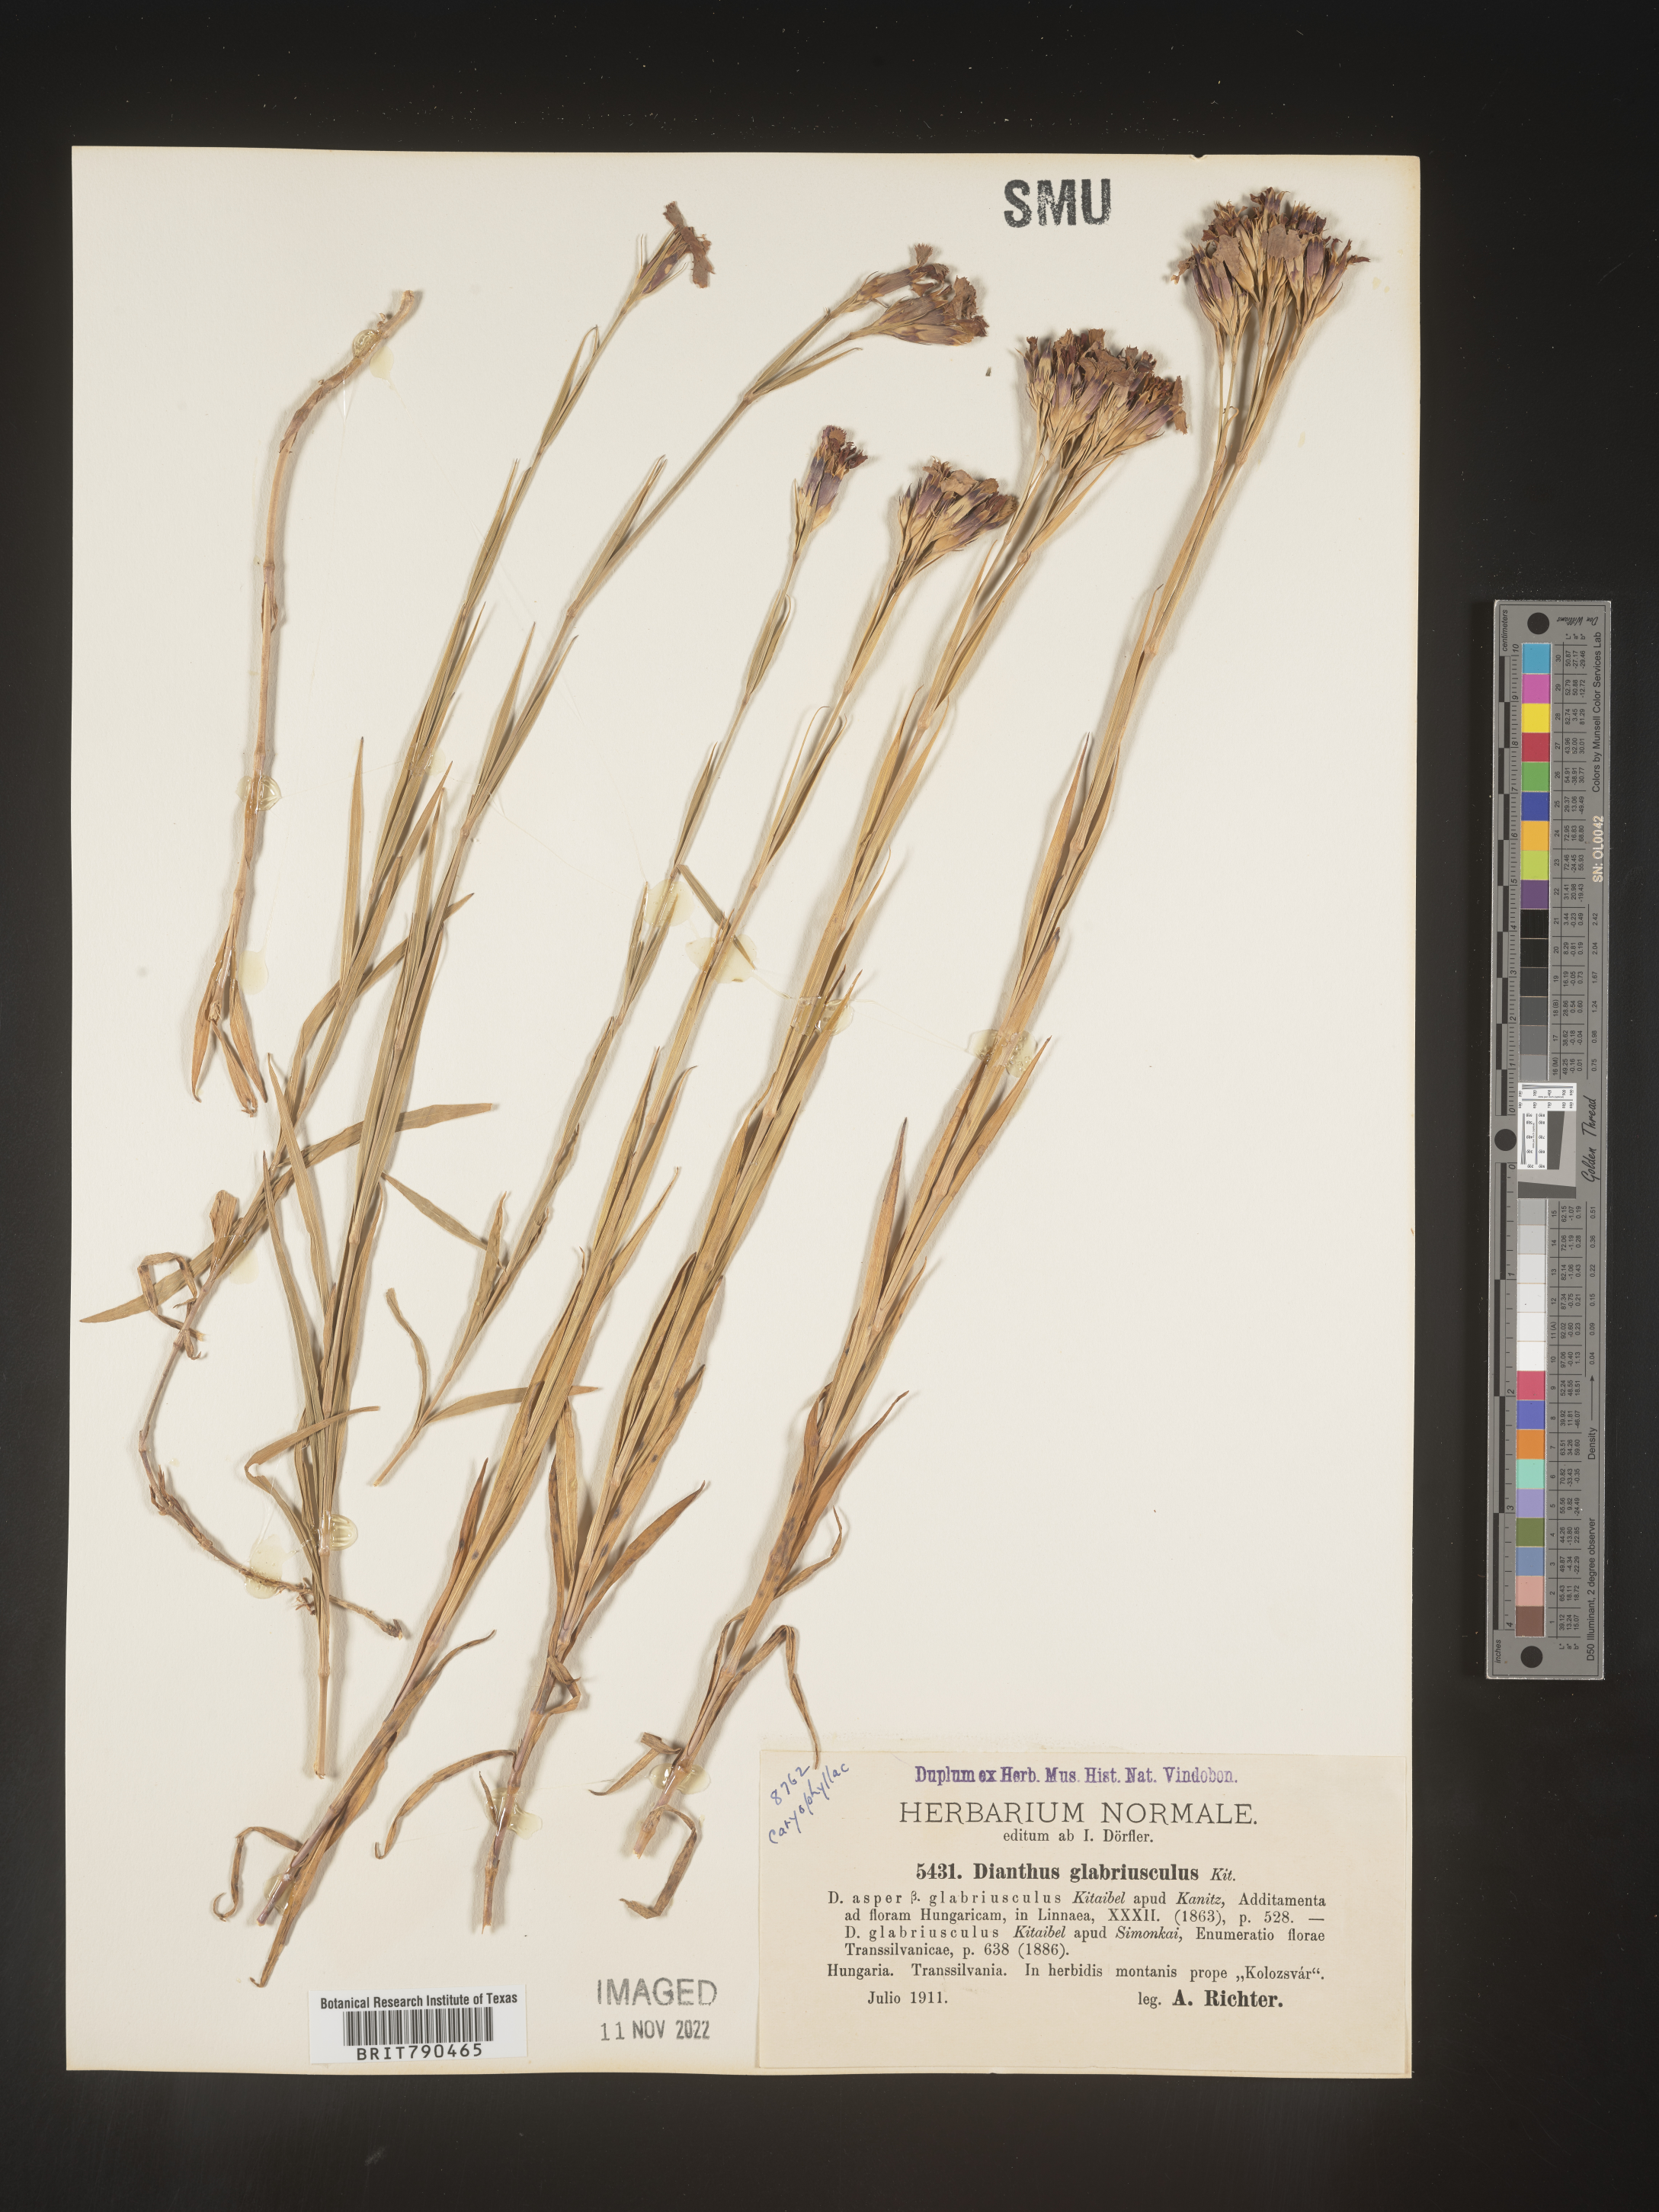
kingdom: Plantae
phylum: Tracheophyta
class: Magnoliopsida
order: Caryophyllales
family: Caryophyllaceae
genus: Dianthus
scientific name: Dianthus
